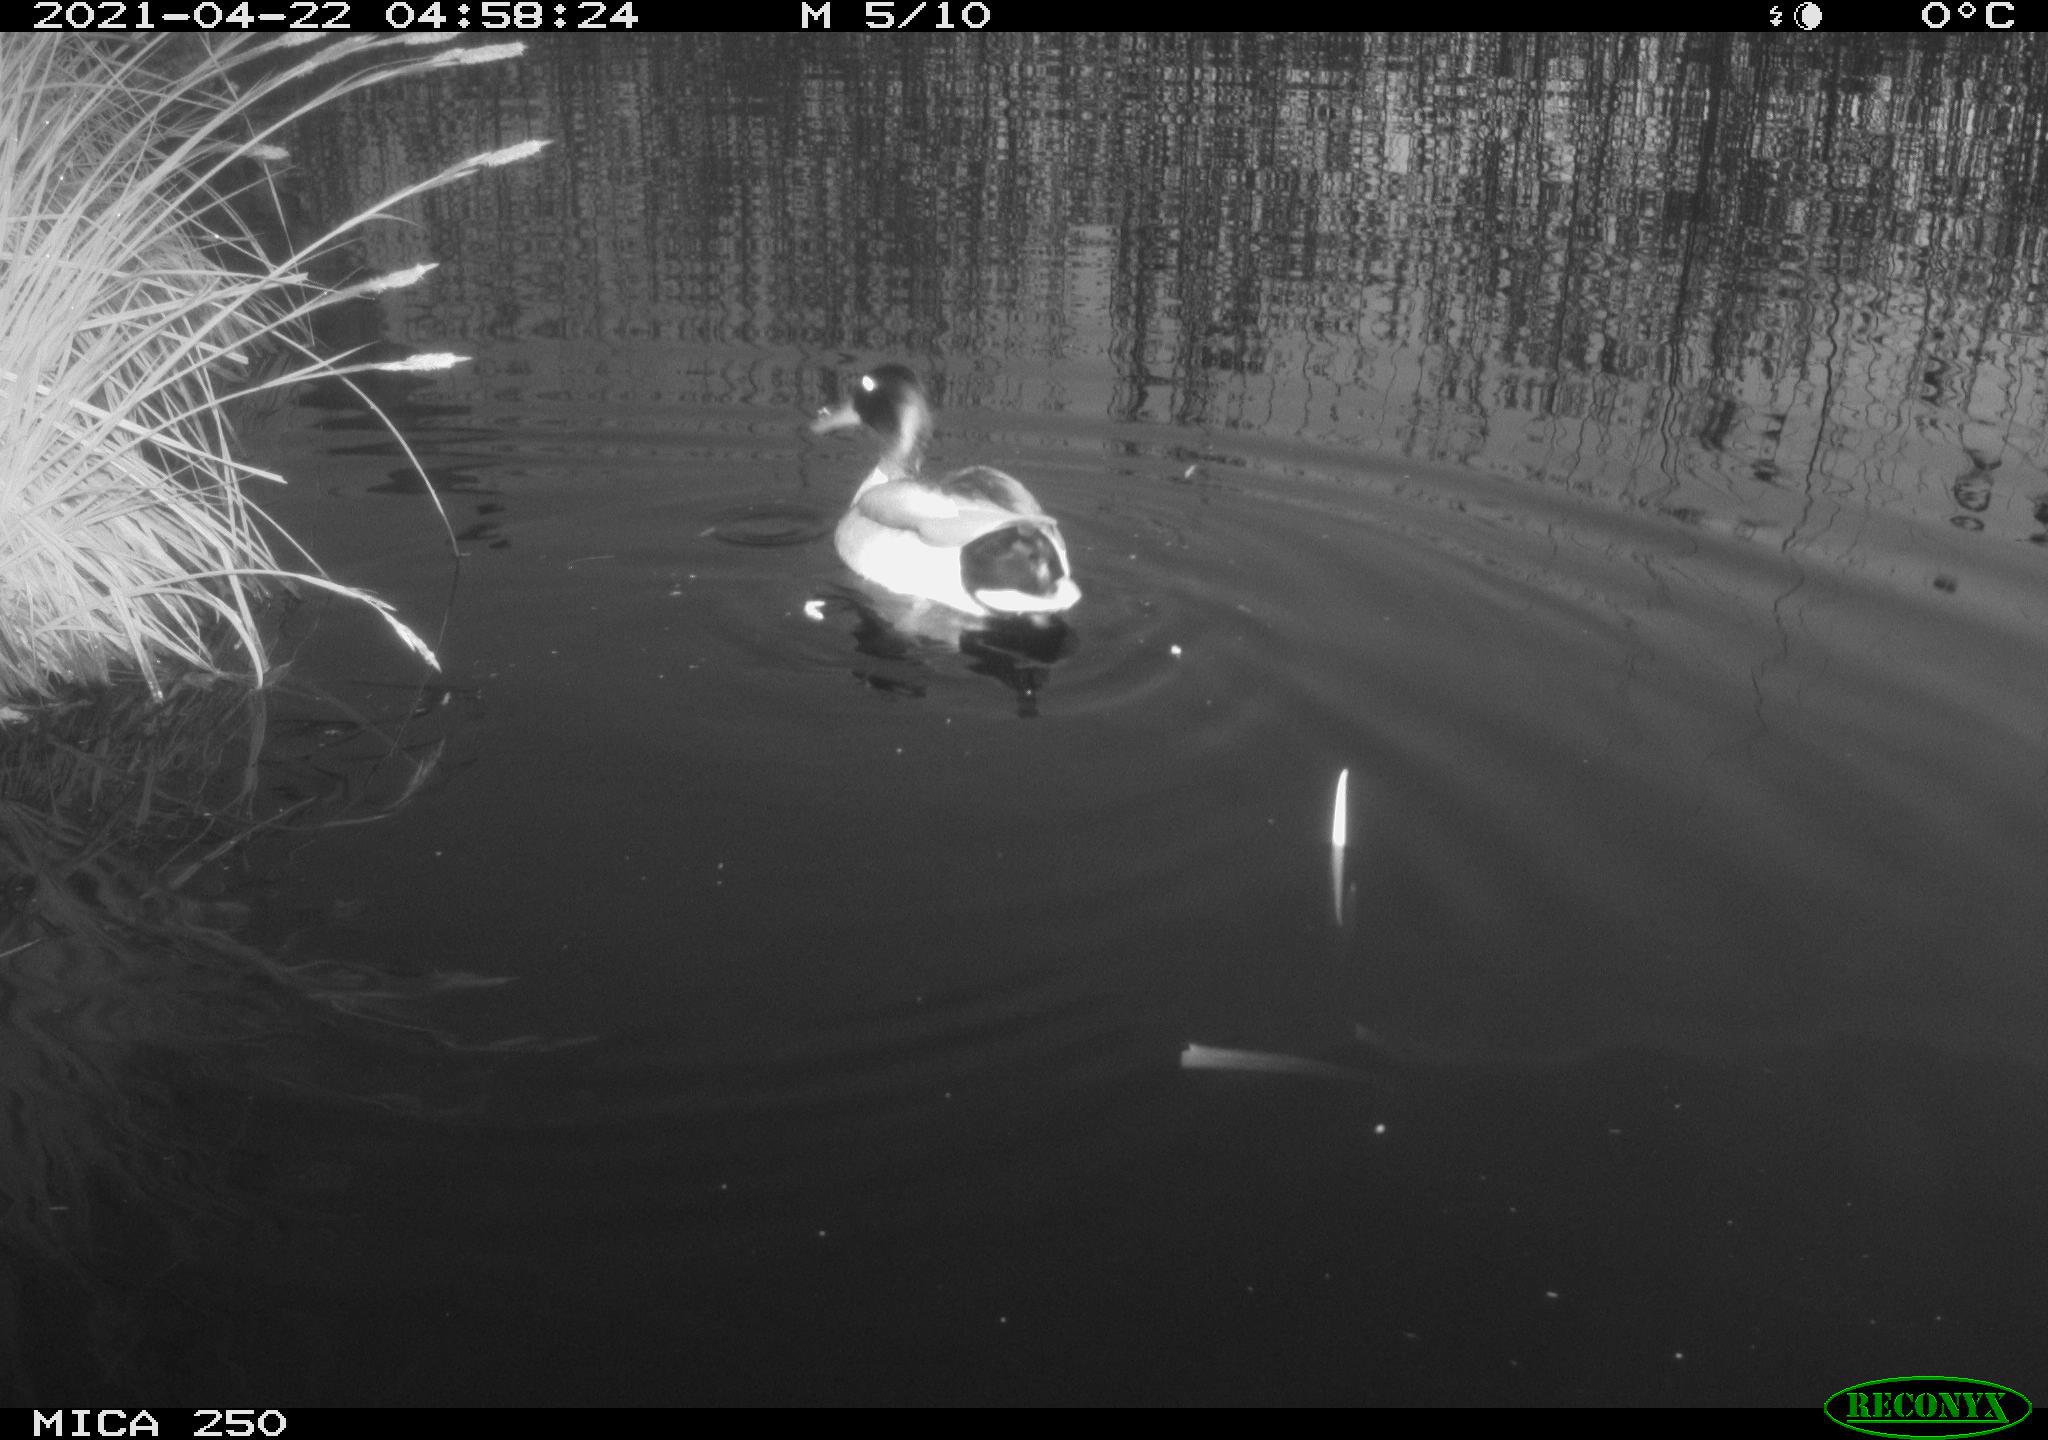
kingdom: Animalia
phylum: Chordata
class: Aves
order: Anseriformes
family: Anatidae
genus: Anas
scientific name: Anas platyrhynchos
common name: Mallard
